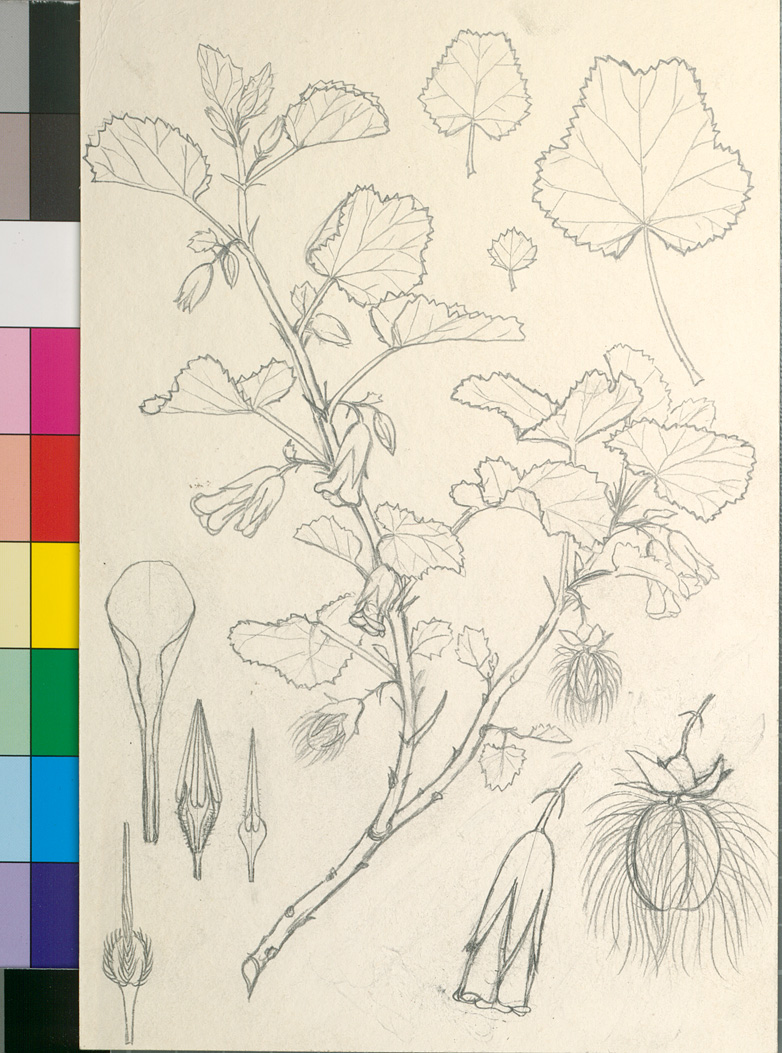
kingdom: Plantae
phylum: Tracheophyta
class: Magnoliopsida
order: Malvales
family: Malvaceae
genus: Hermannia
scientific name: Hermannia merxmuelleri
